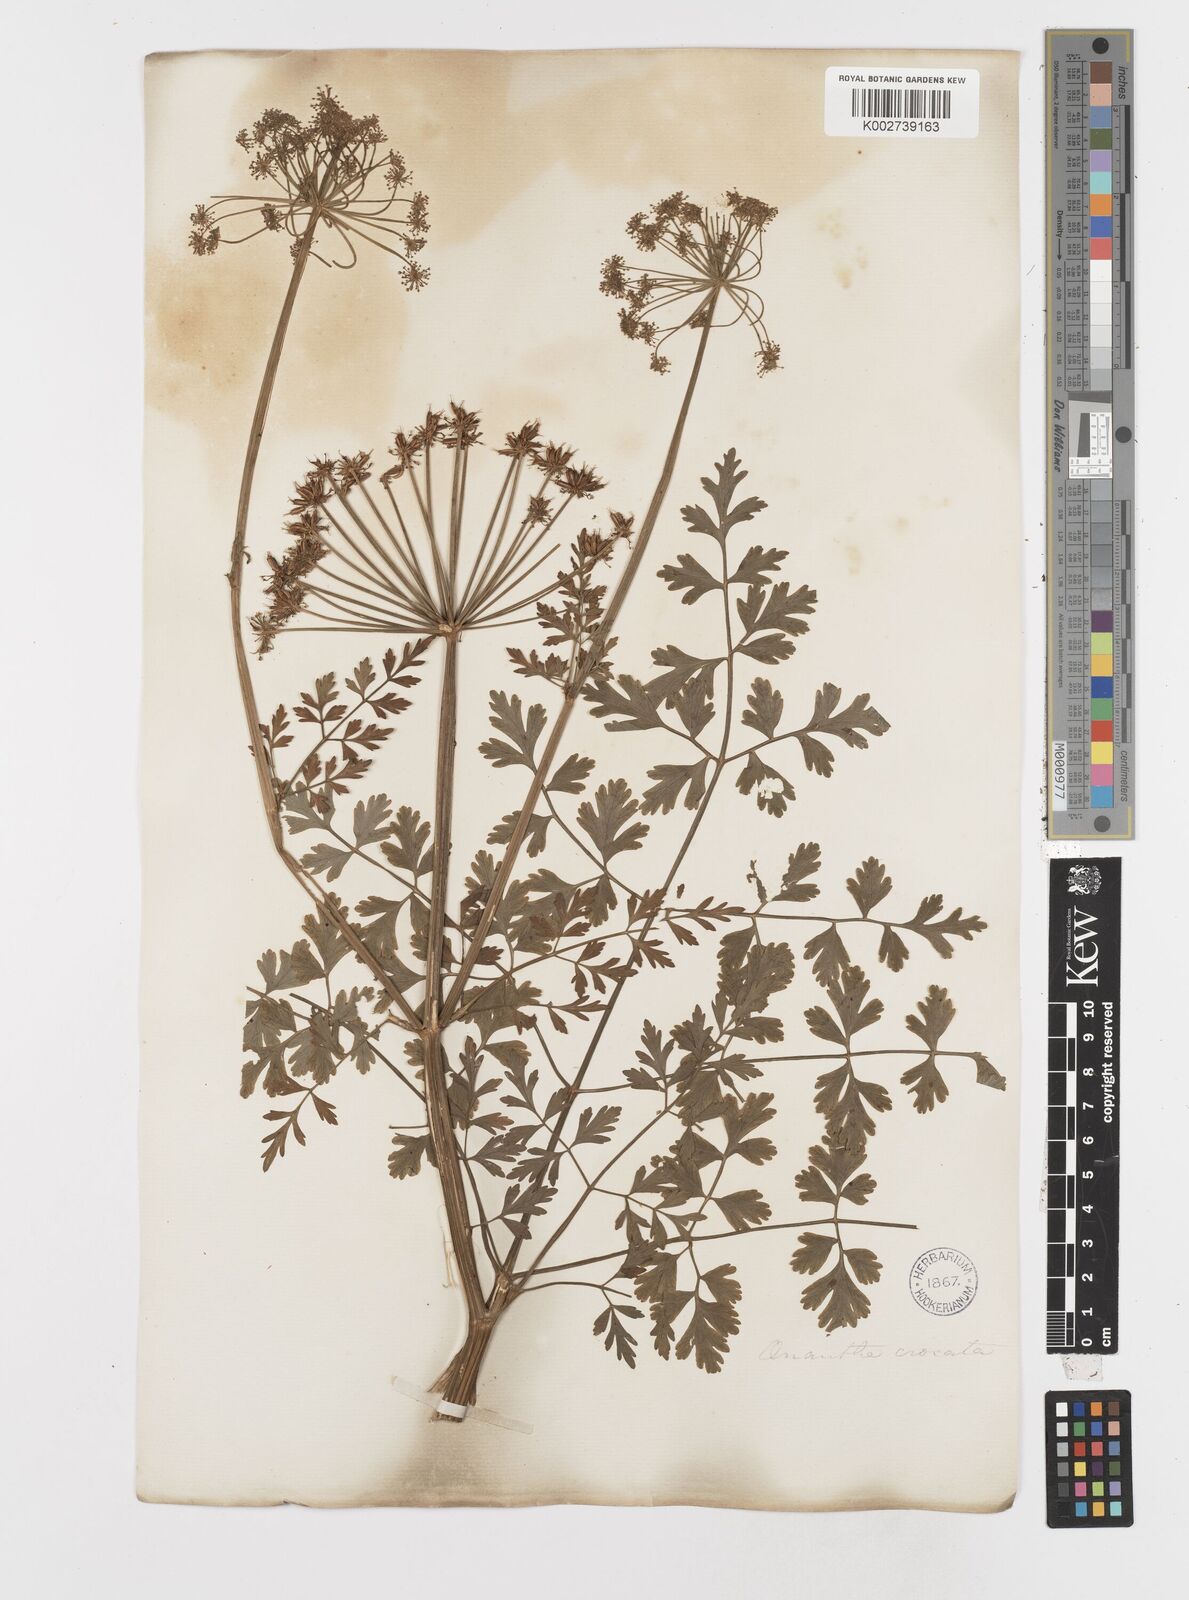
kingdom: Plantae
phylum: Tracheophyta
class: Magnoliopsida
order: Apiales
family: Apiaceae
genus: Oenanthe
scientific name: Oenanthe crocata
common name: Hemlock water-dropwort
